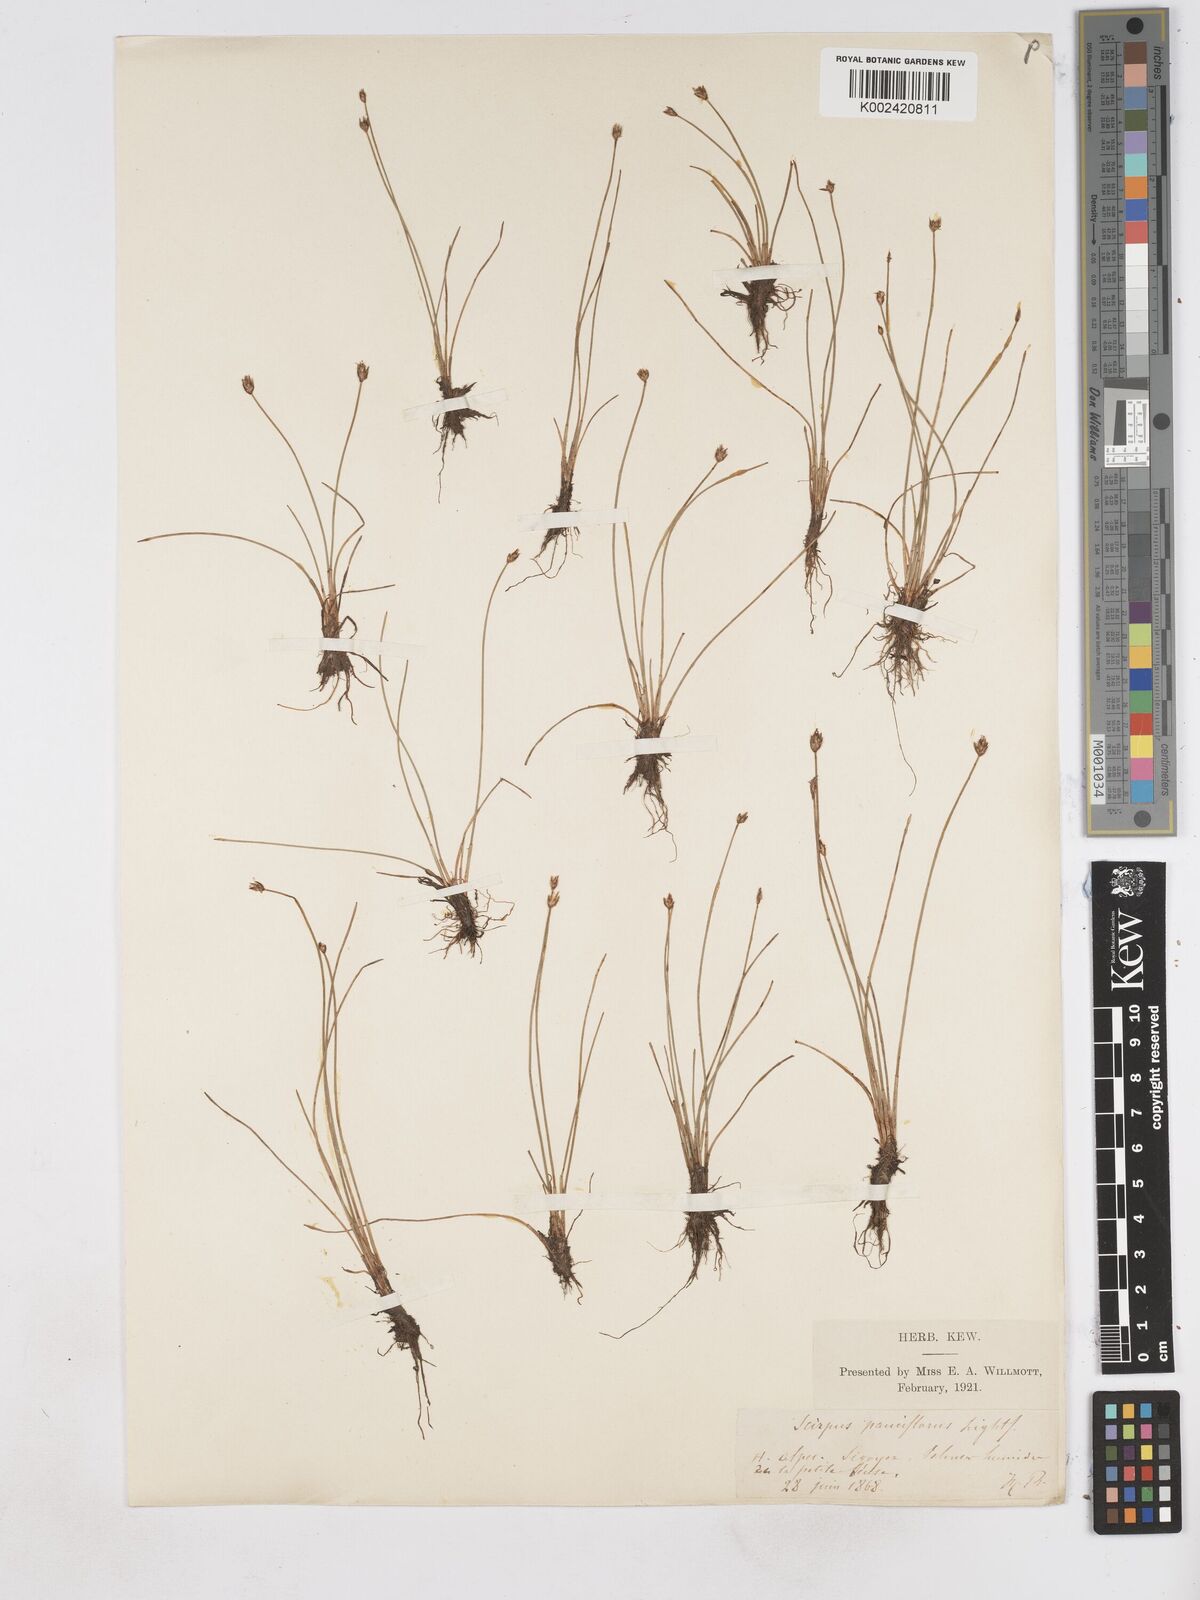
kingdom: Plantae
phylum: Tracheophyta
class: Liliopsida
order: Poales
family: Cyperaceae
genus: Eleocharis
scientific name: Eleocharis quinqueflora
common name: Few-flowered spike-rush
